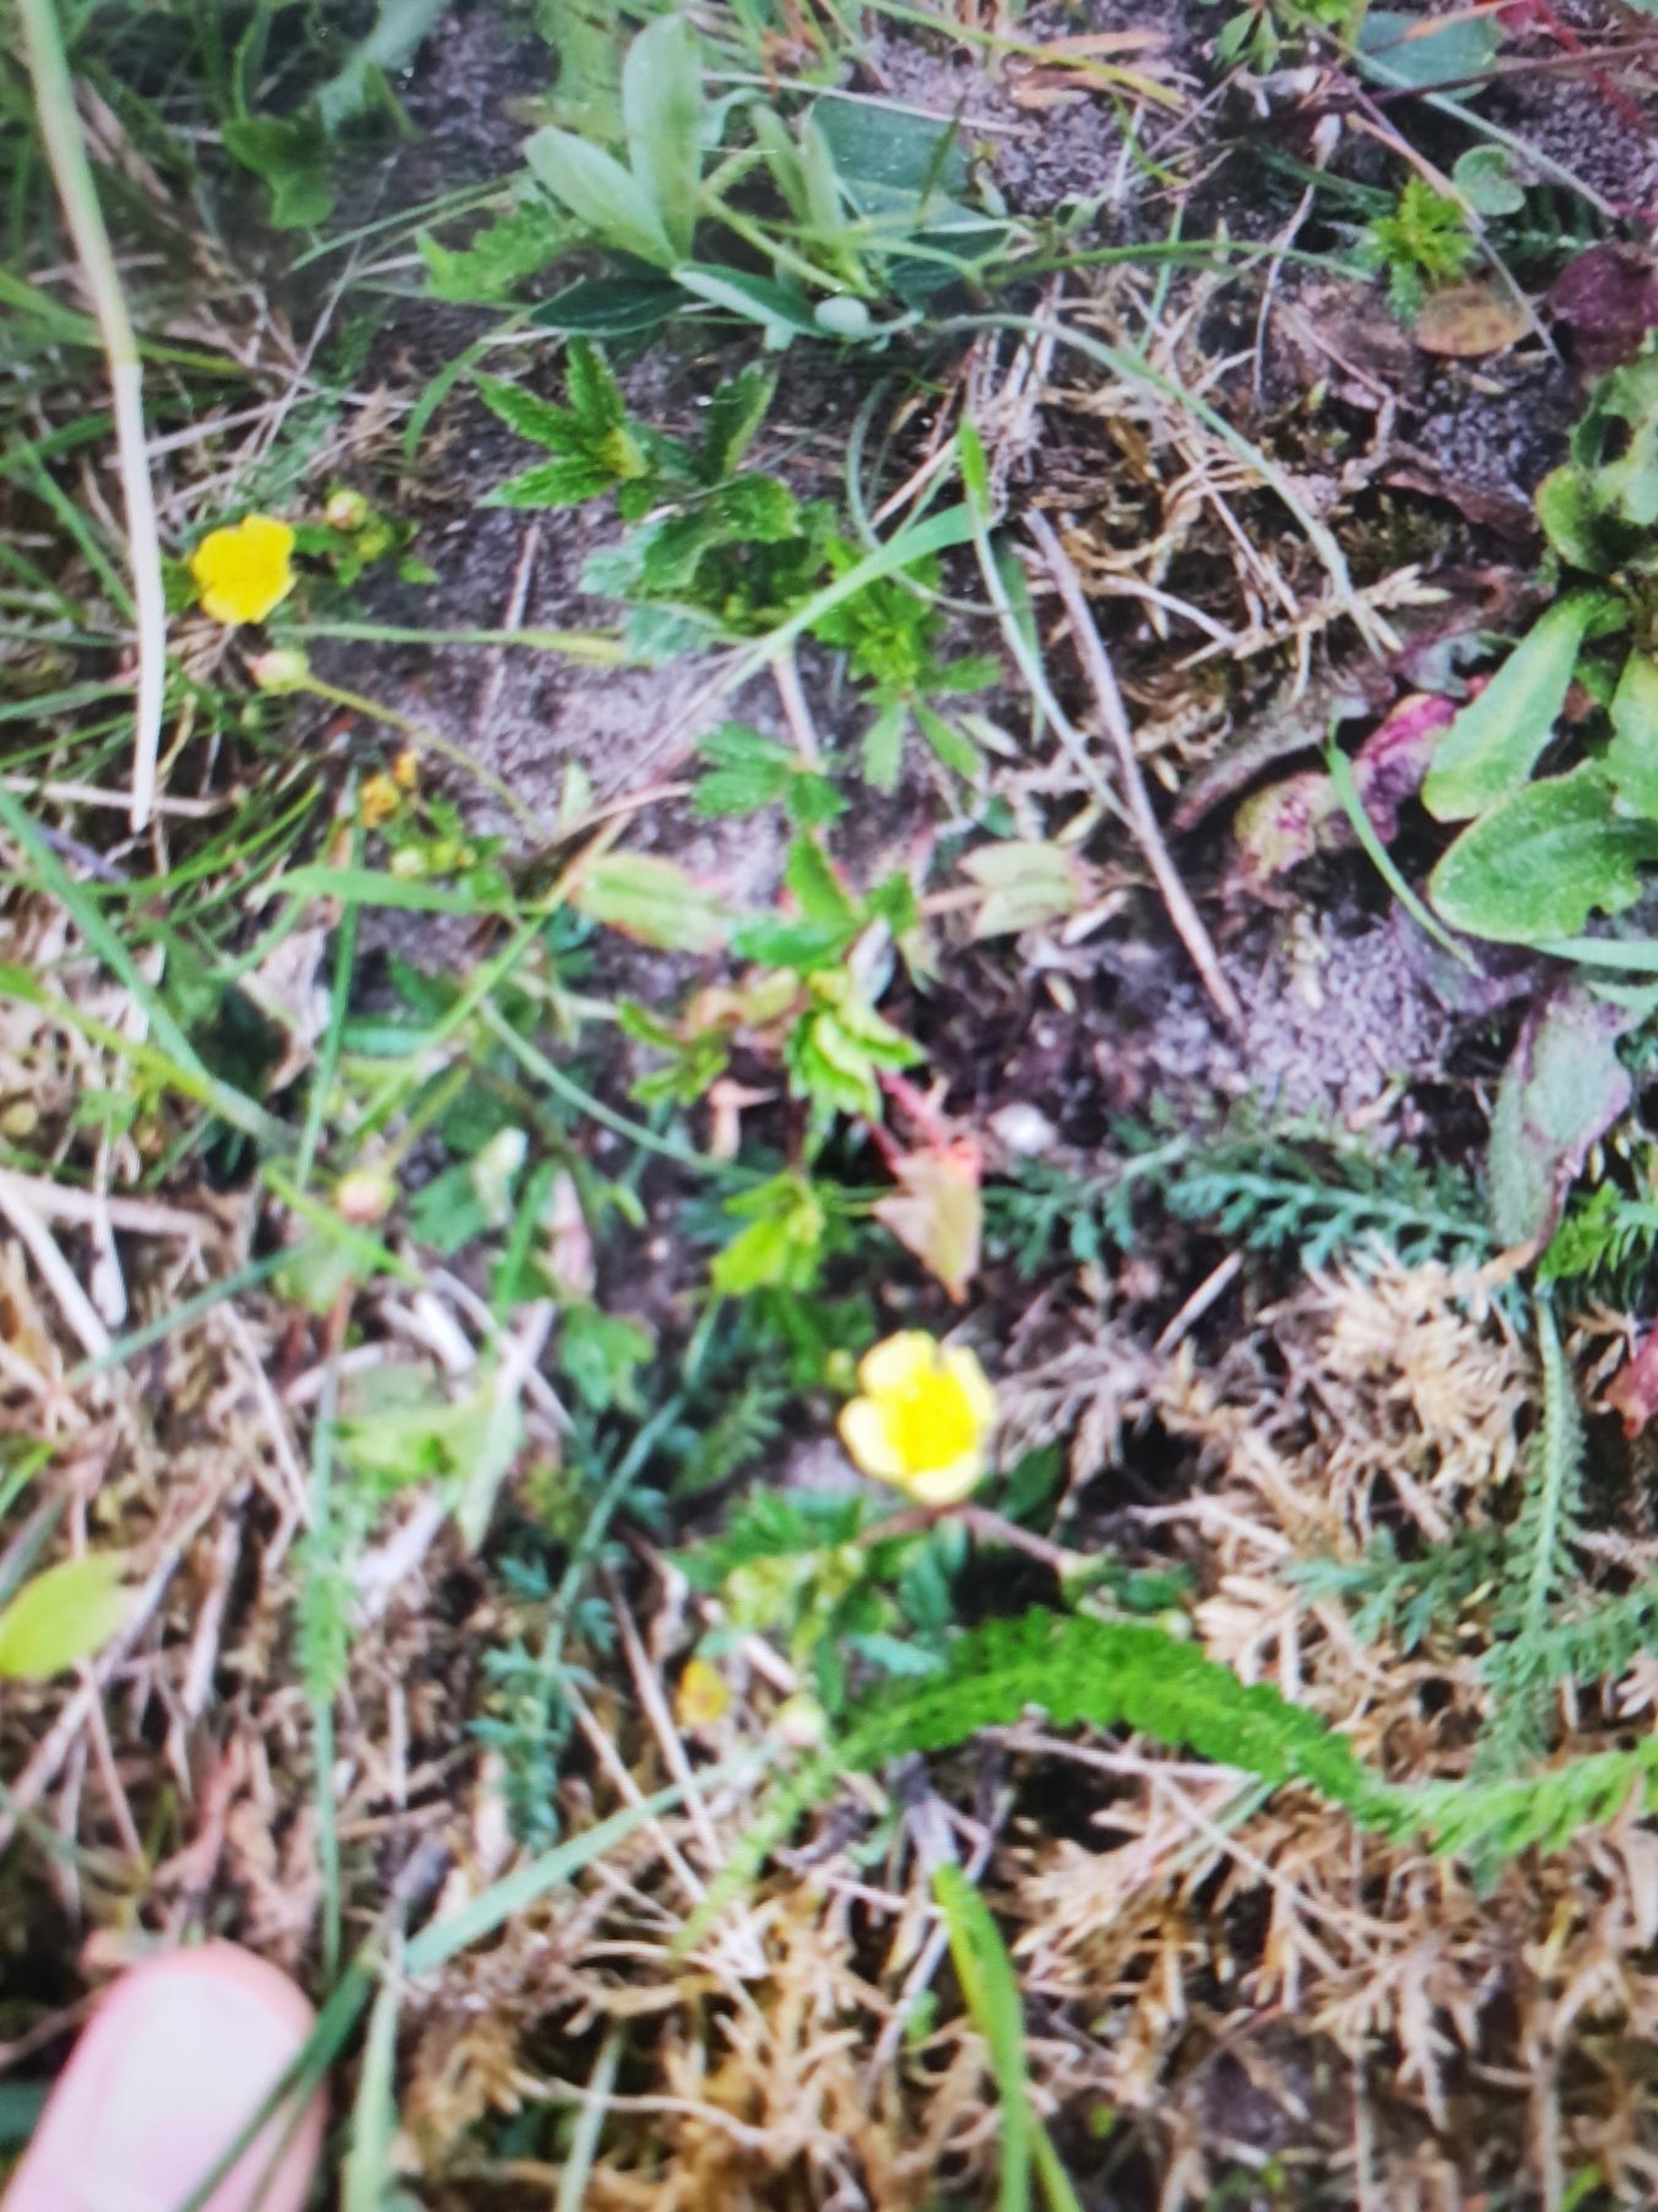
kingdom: Plantae
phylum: Tracheophyta
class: Magnoliopsida
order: Rosales
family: Rosaceae
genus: Potentilla
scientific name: Potentilla erecta
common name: Tormentil
